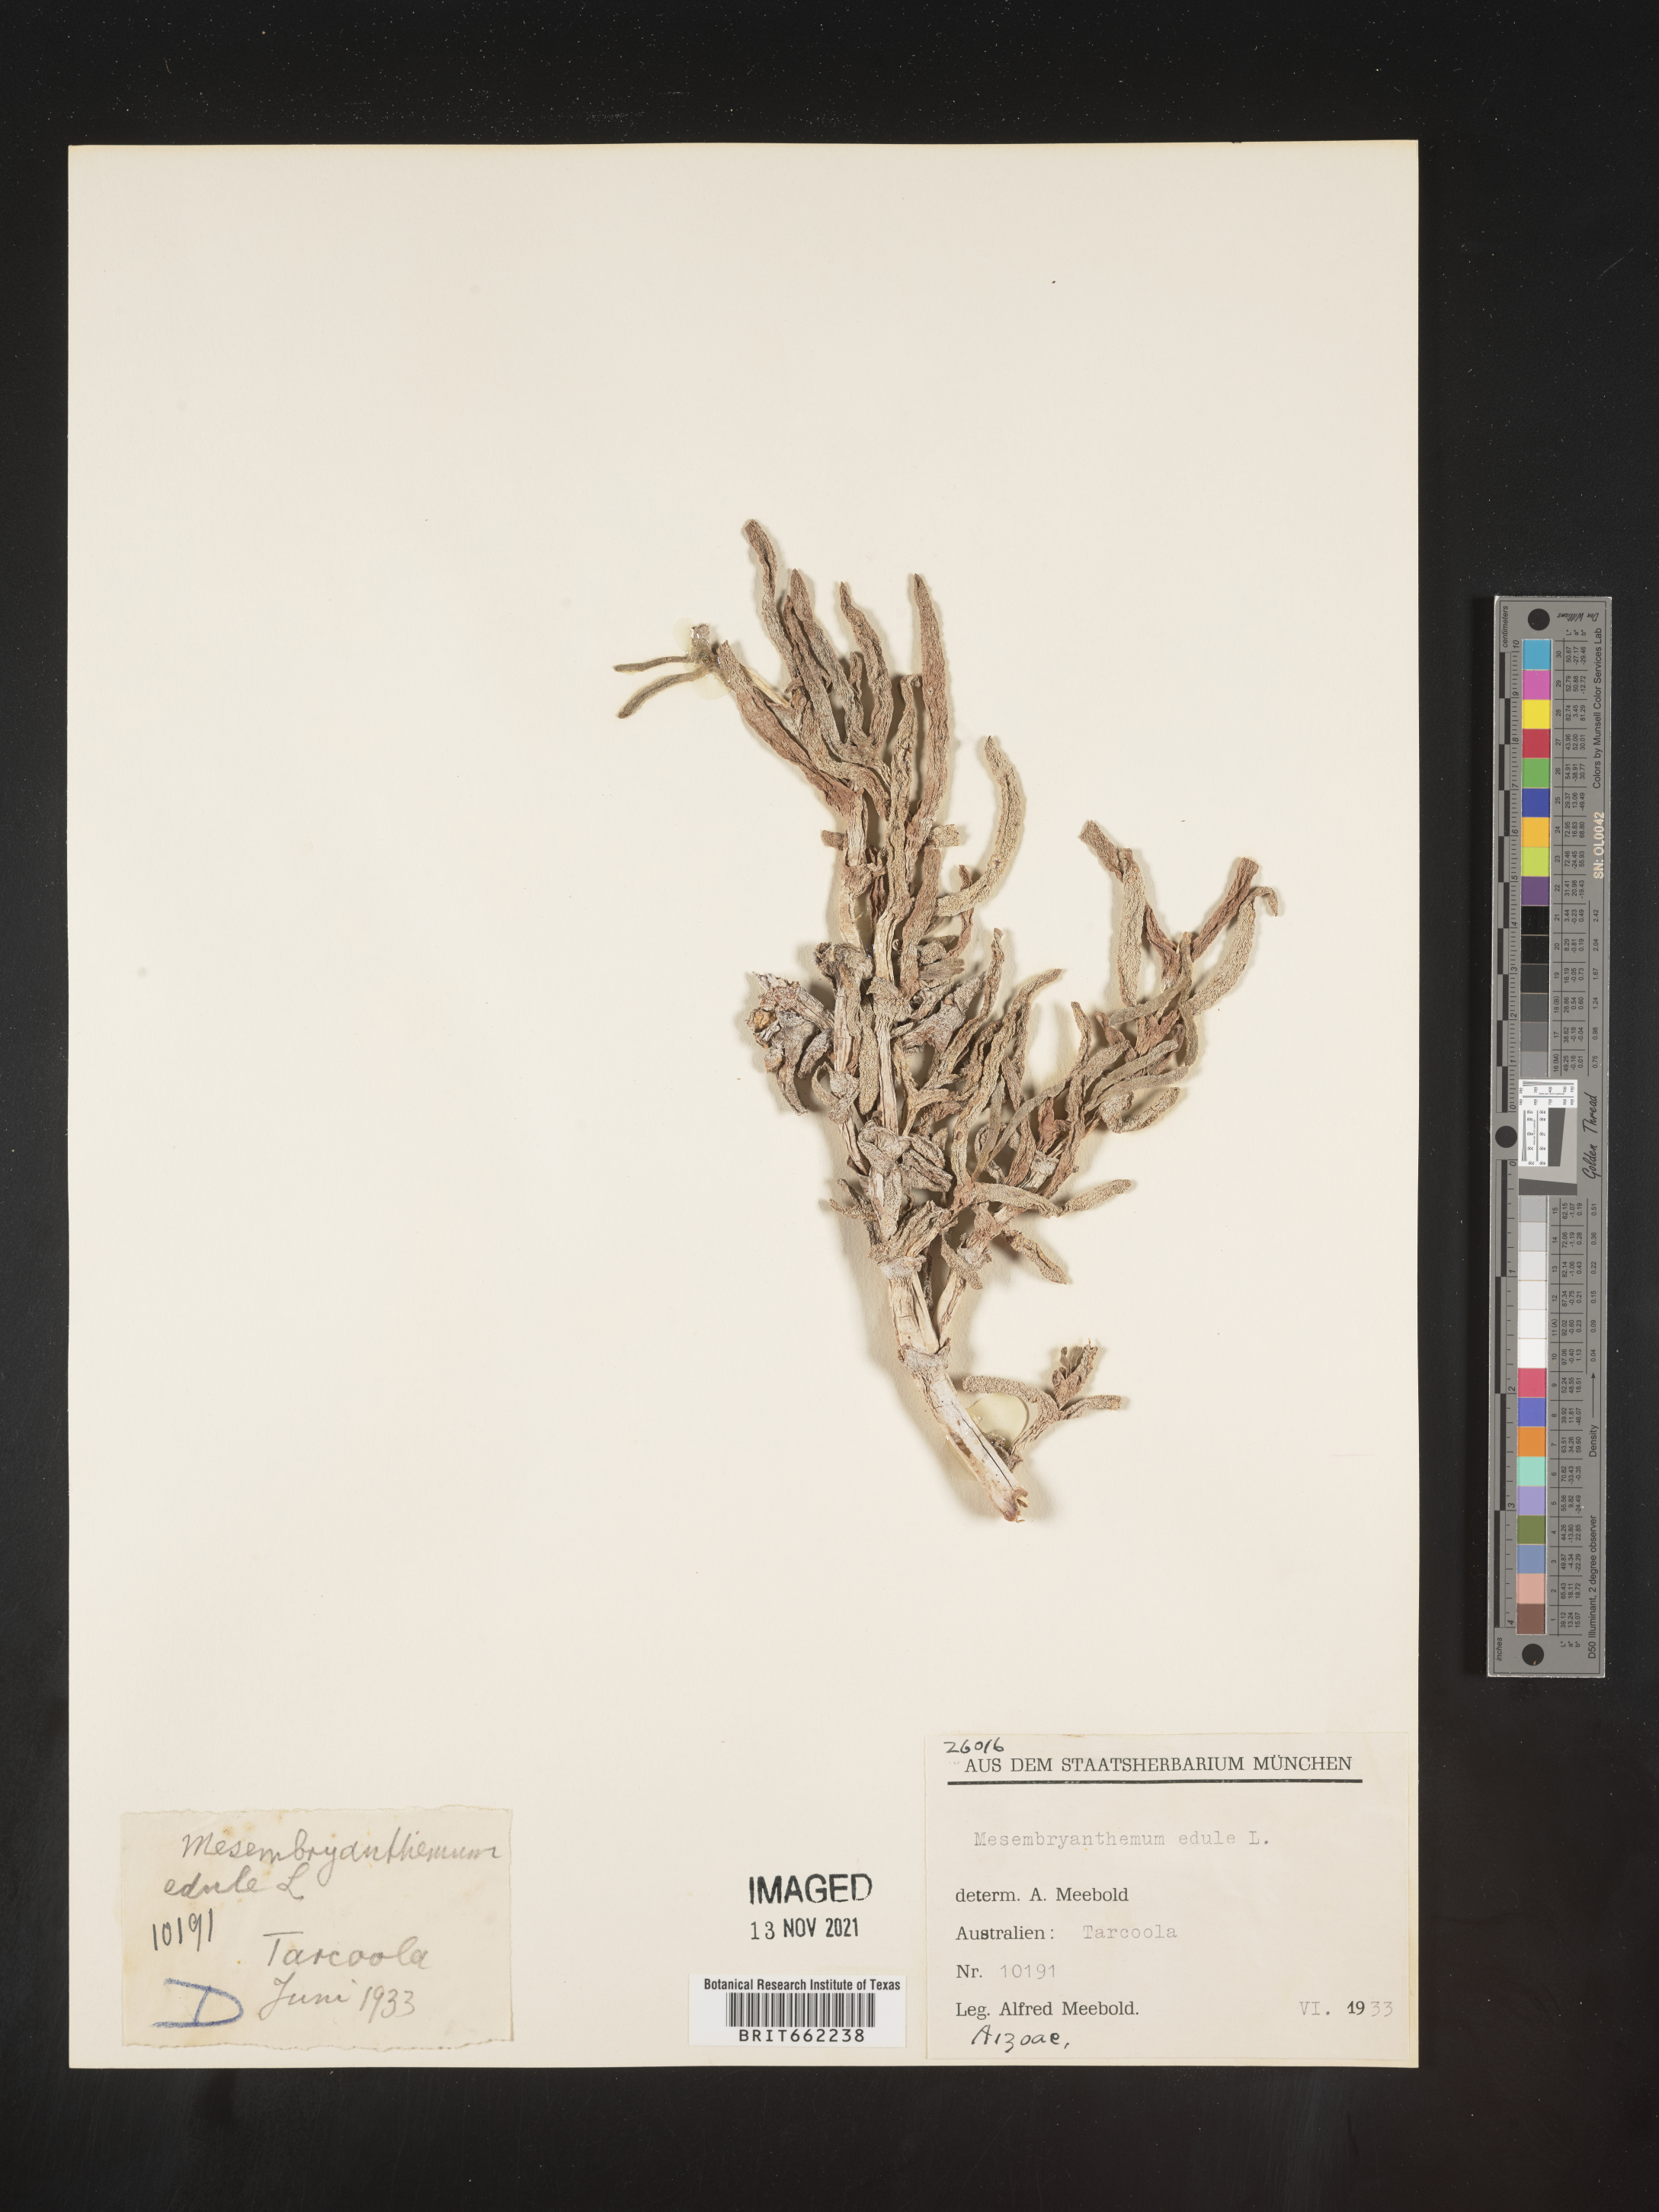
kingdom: Plantae
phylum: Tracheophyta
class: Magnoliopsida
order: Caryophyllales
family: Aizoaceae
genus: Mesembryanthemum
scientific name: Mesembryanthemum
